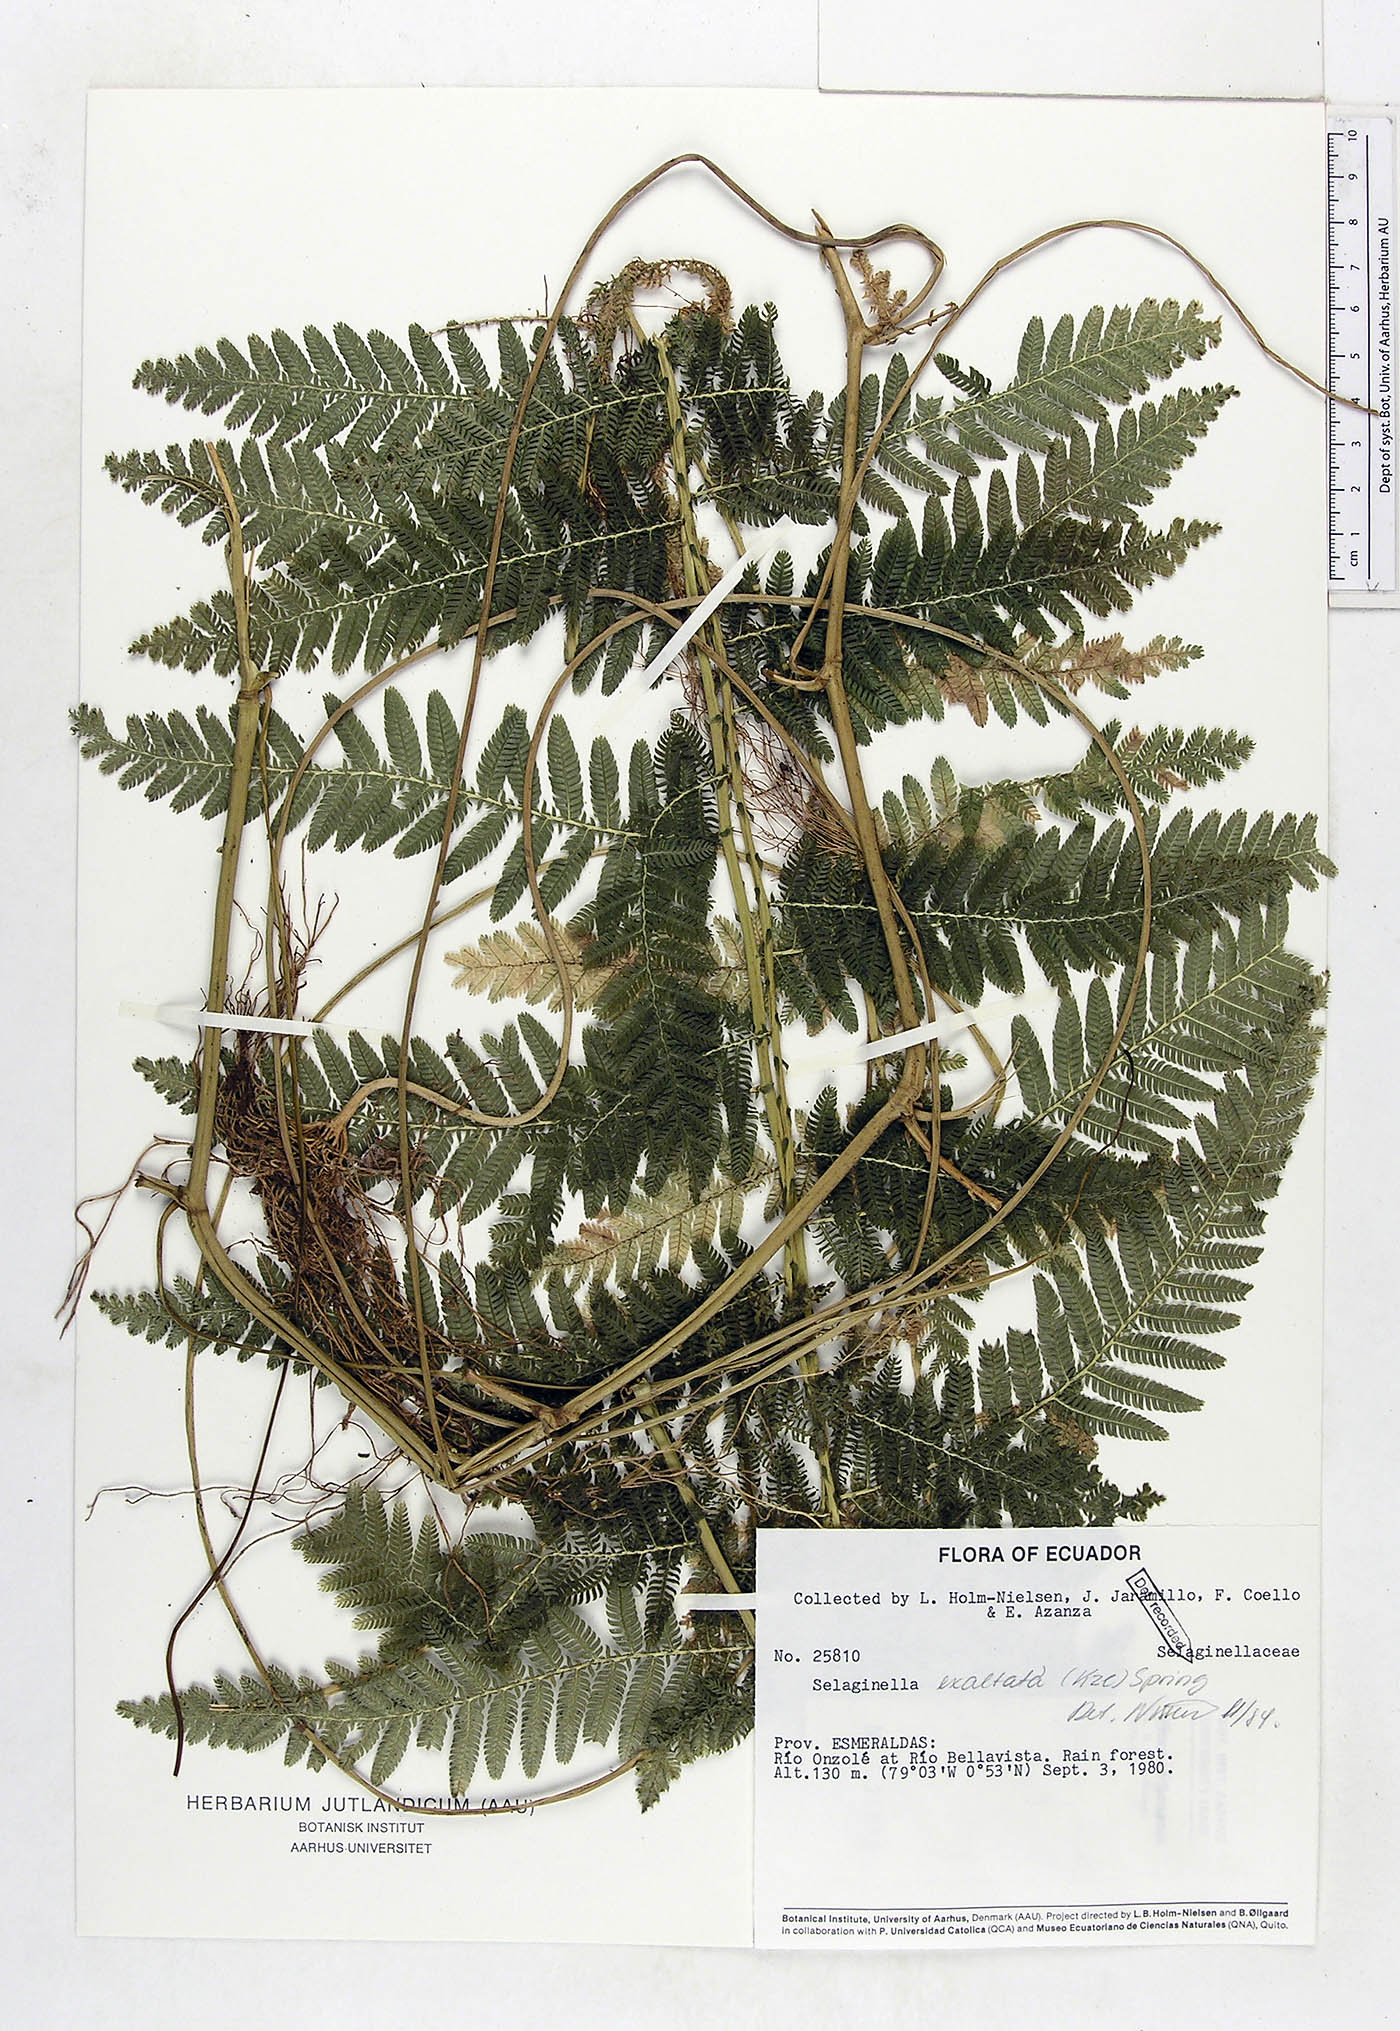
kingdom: Plantae
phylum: Tracheophyta
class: Lycopodiopsida
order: Selaginellales
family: Selaginellaceae
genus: Selaginella
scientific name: Selaginella exaltata
